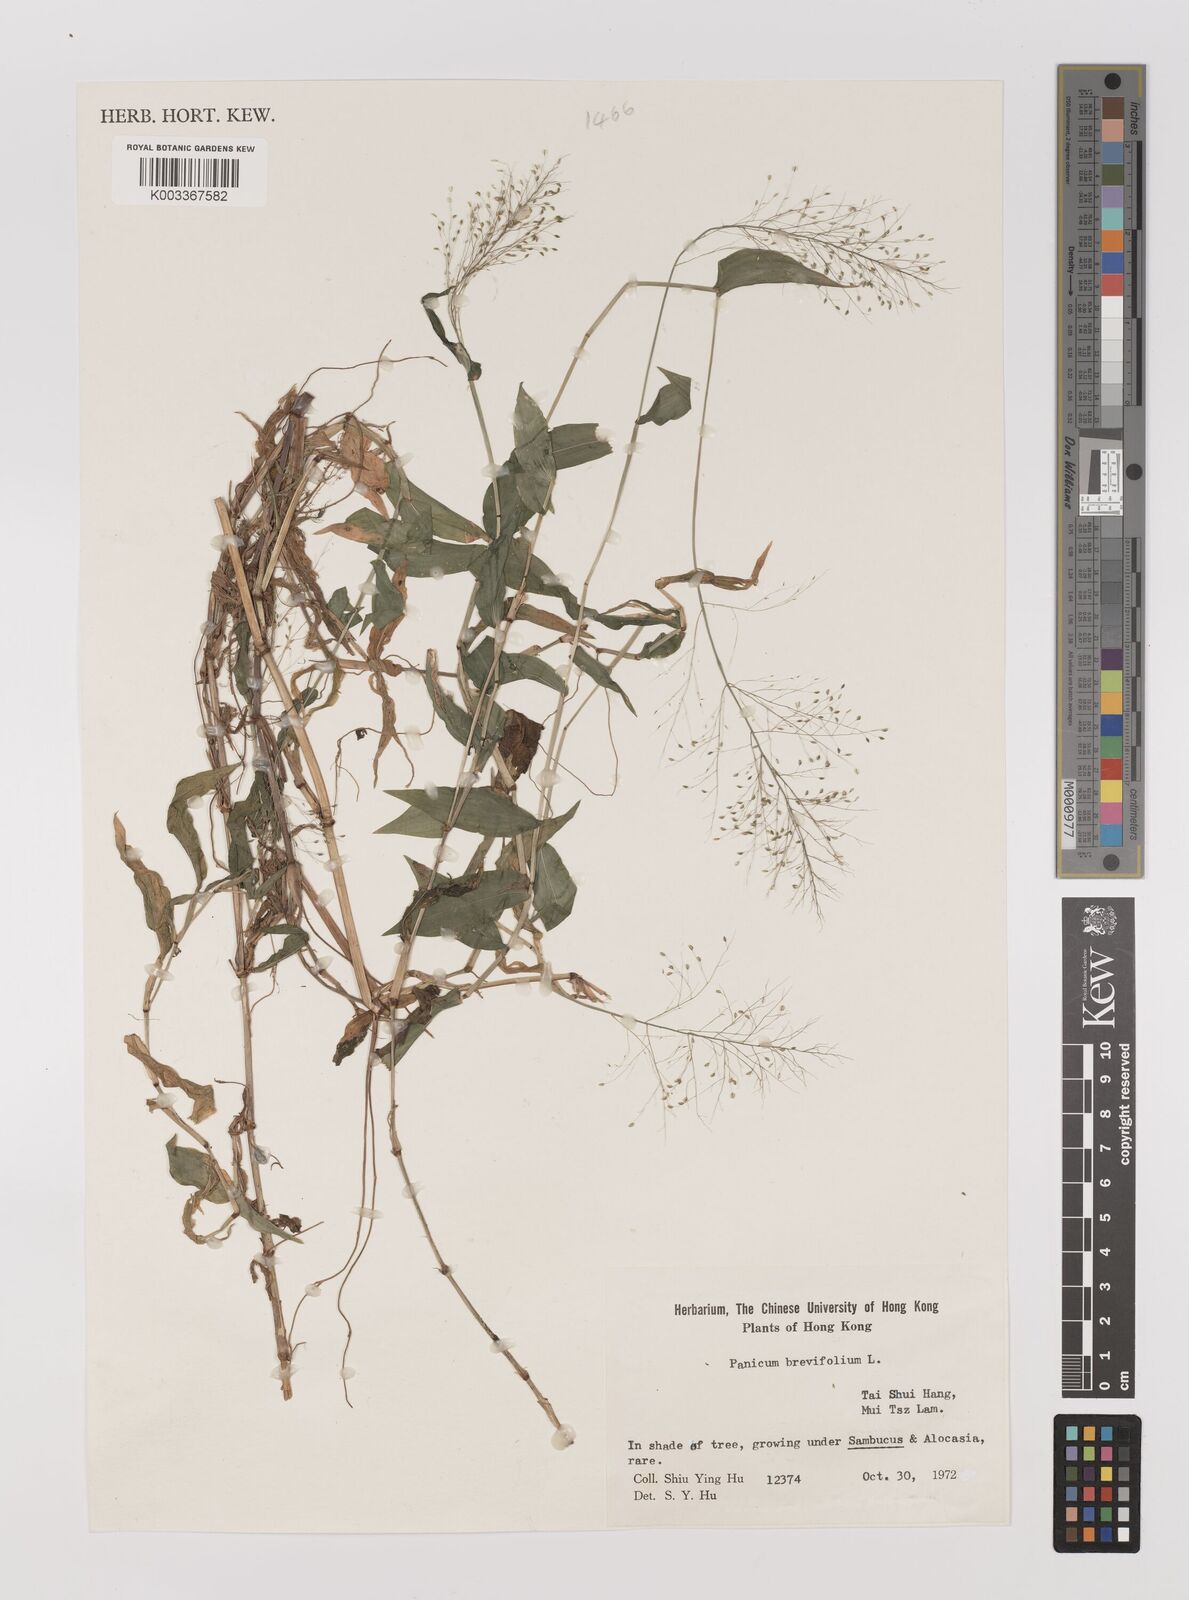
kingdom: Plantae
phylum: Tracheophyta
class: Liliopsida
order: Poales
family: Poaceae
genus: Panicum
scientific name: Panicum brevifolium
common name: Shortleaf panic grass
